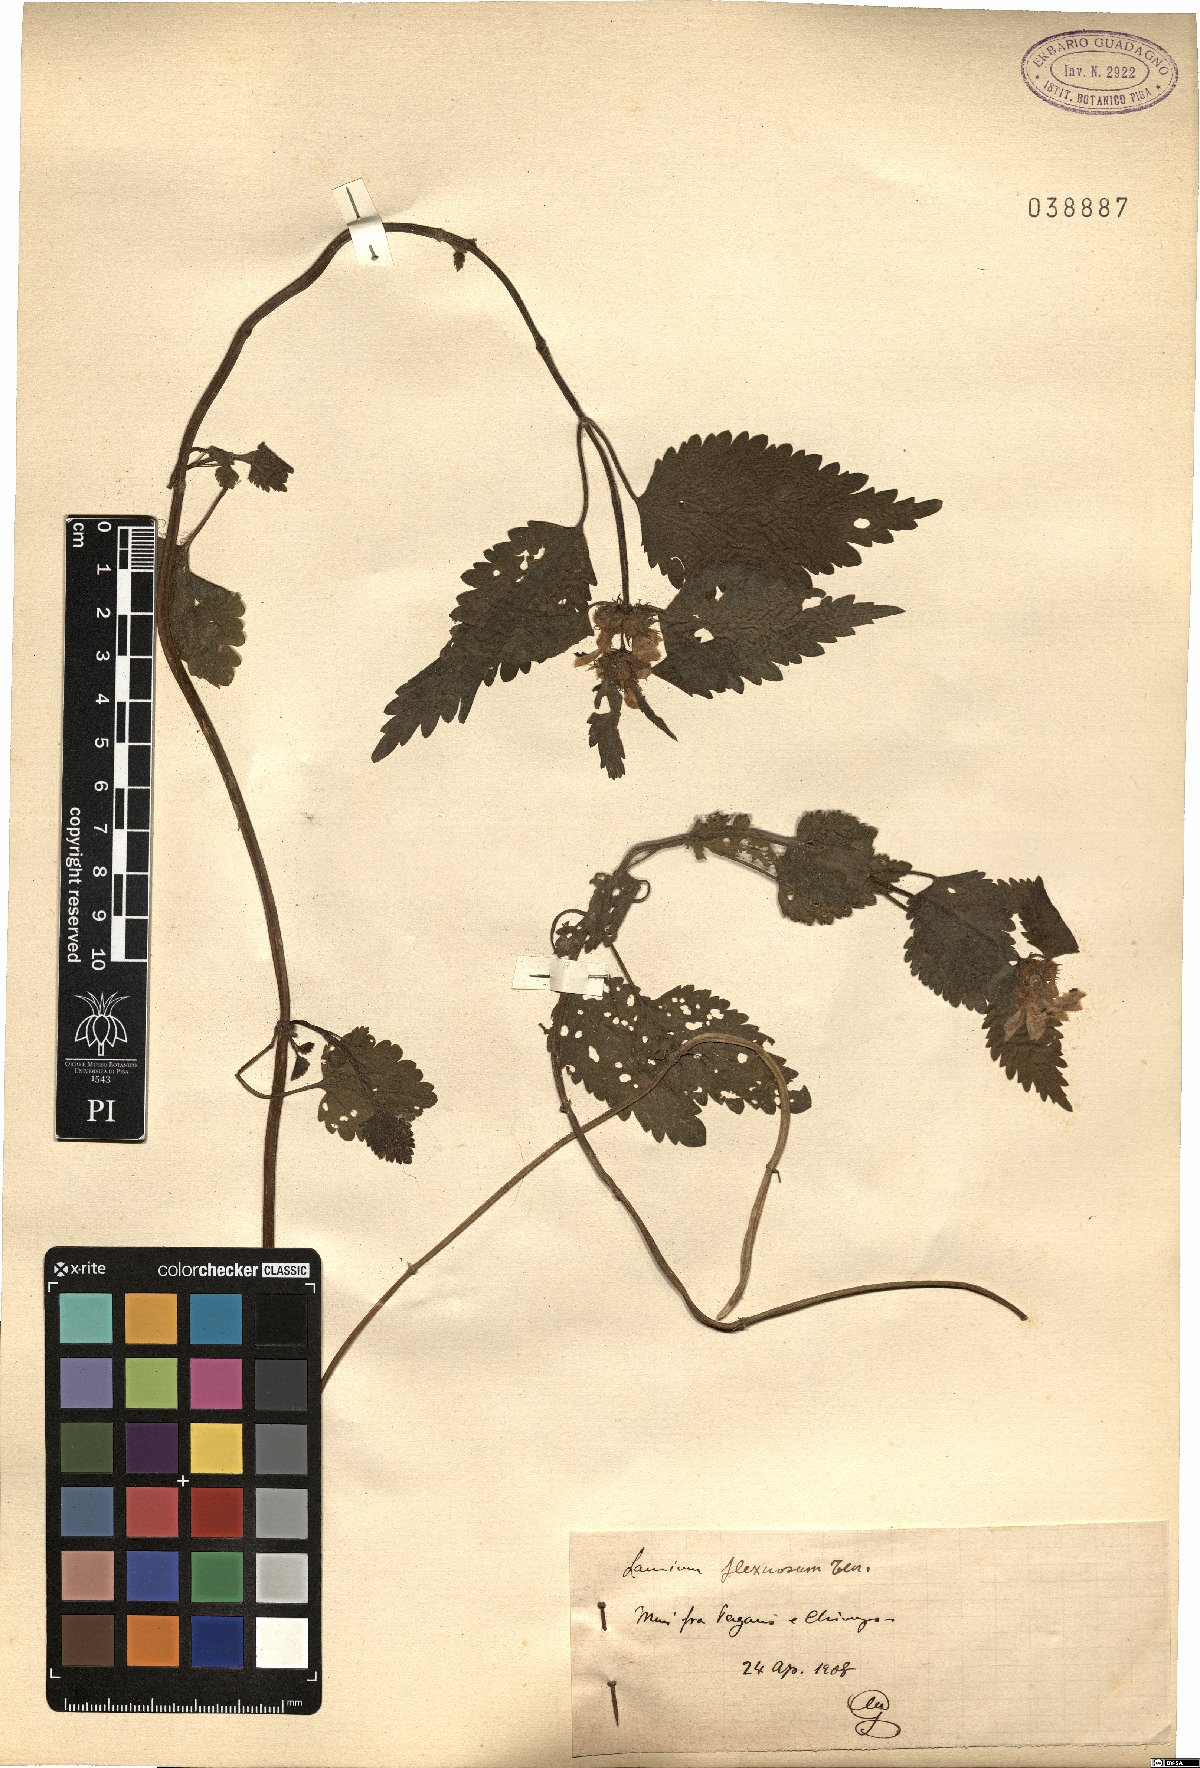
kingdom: Plantae
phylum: Tracheophyta
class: Magnoliopsida
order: Lamiales
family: Lamiaceae
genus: Lamium
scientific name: Lamium flexuosum
